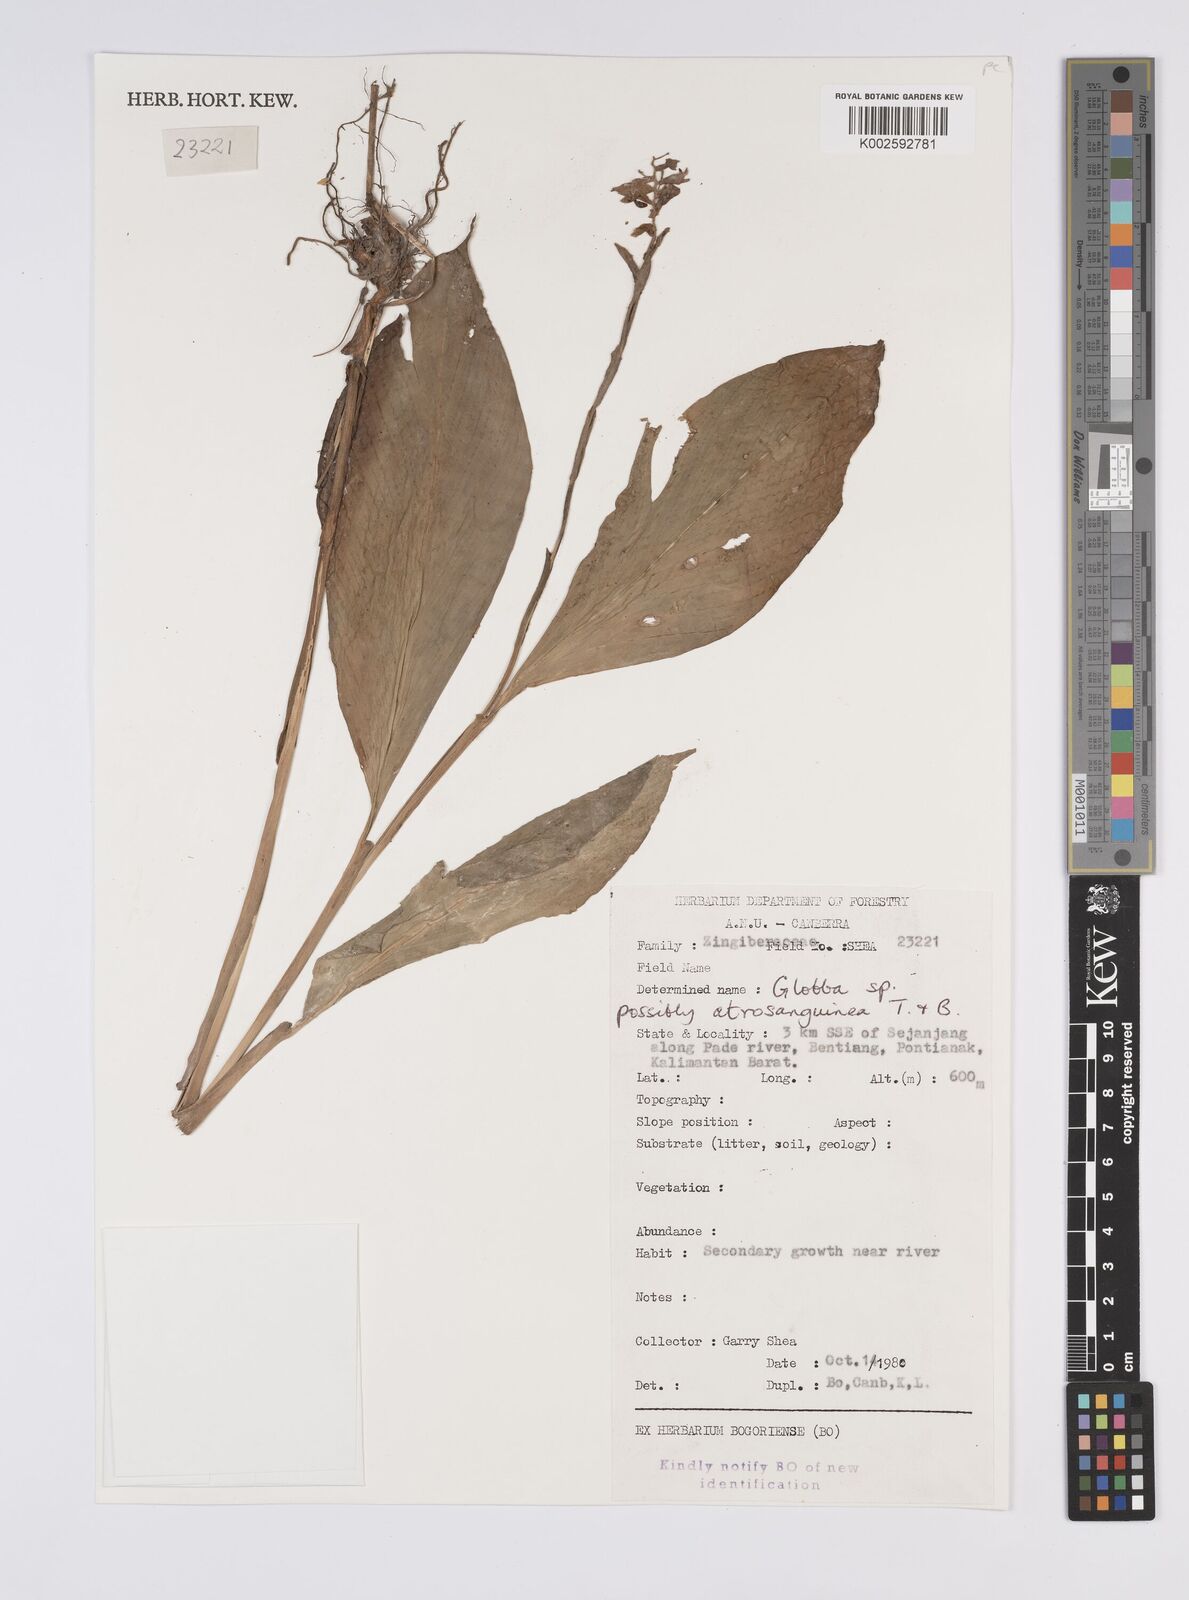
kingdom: Plantae
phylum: Tracheophyta
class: Liliopsida
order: Zingiberales
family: Zingiberaceae
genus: Globba
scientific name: Globba atrosanguinea
